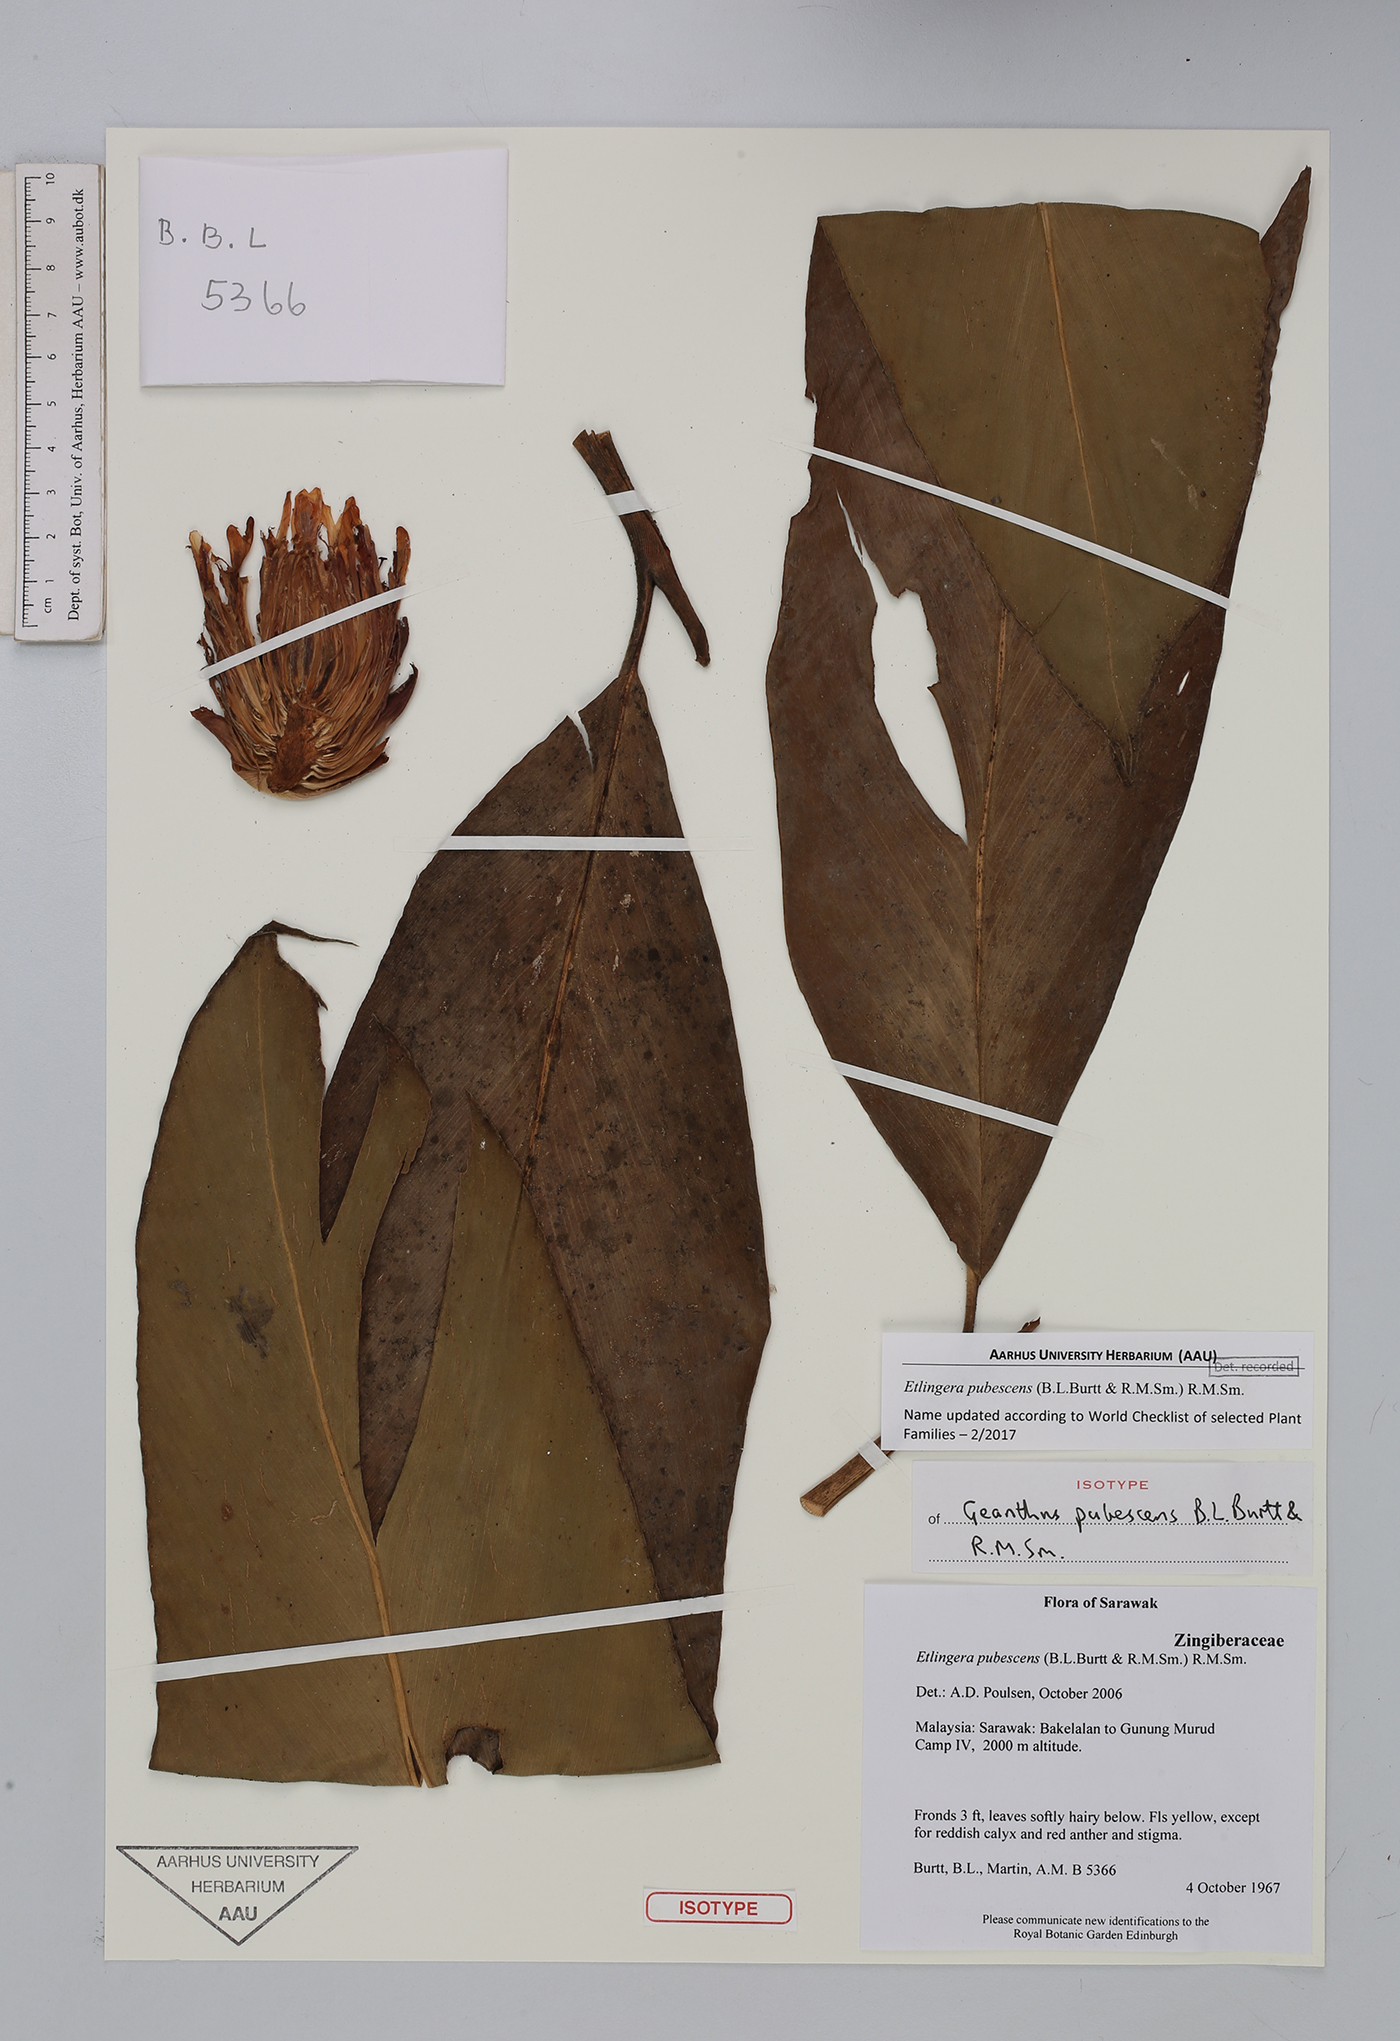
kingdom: Plantae
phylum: Tracheophyta
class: Liliopsida
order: Zingiberales
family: Zingiberaceae
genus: Etlingera
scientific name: Etlingera pubescens
